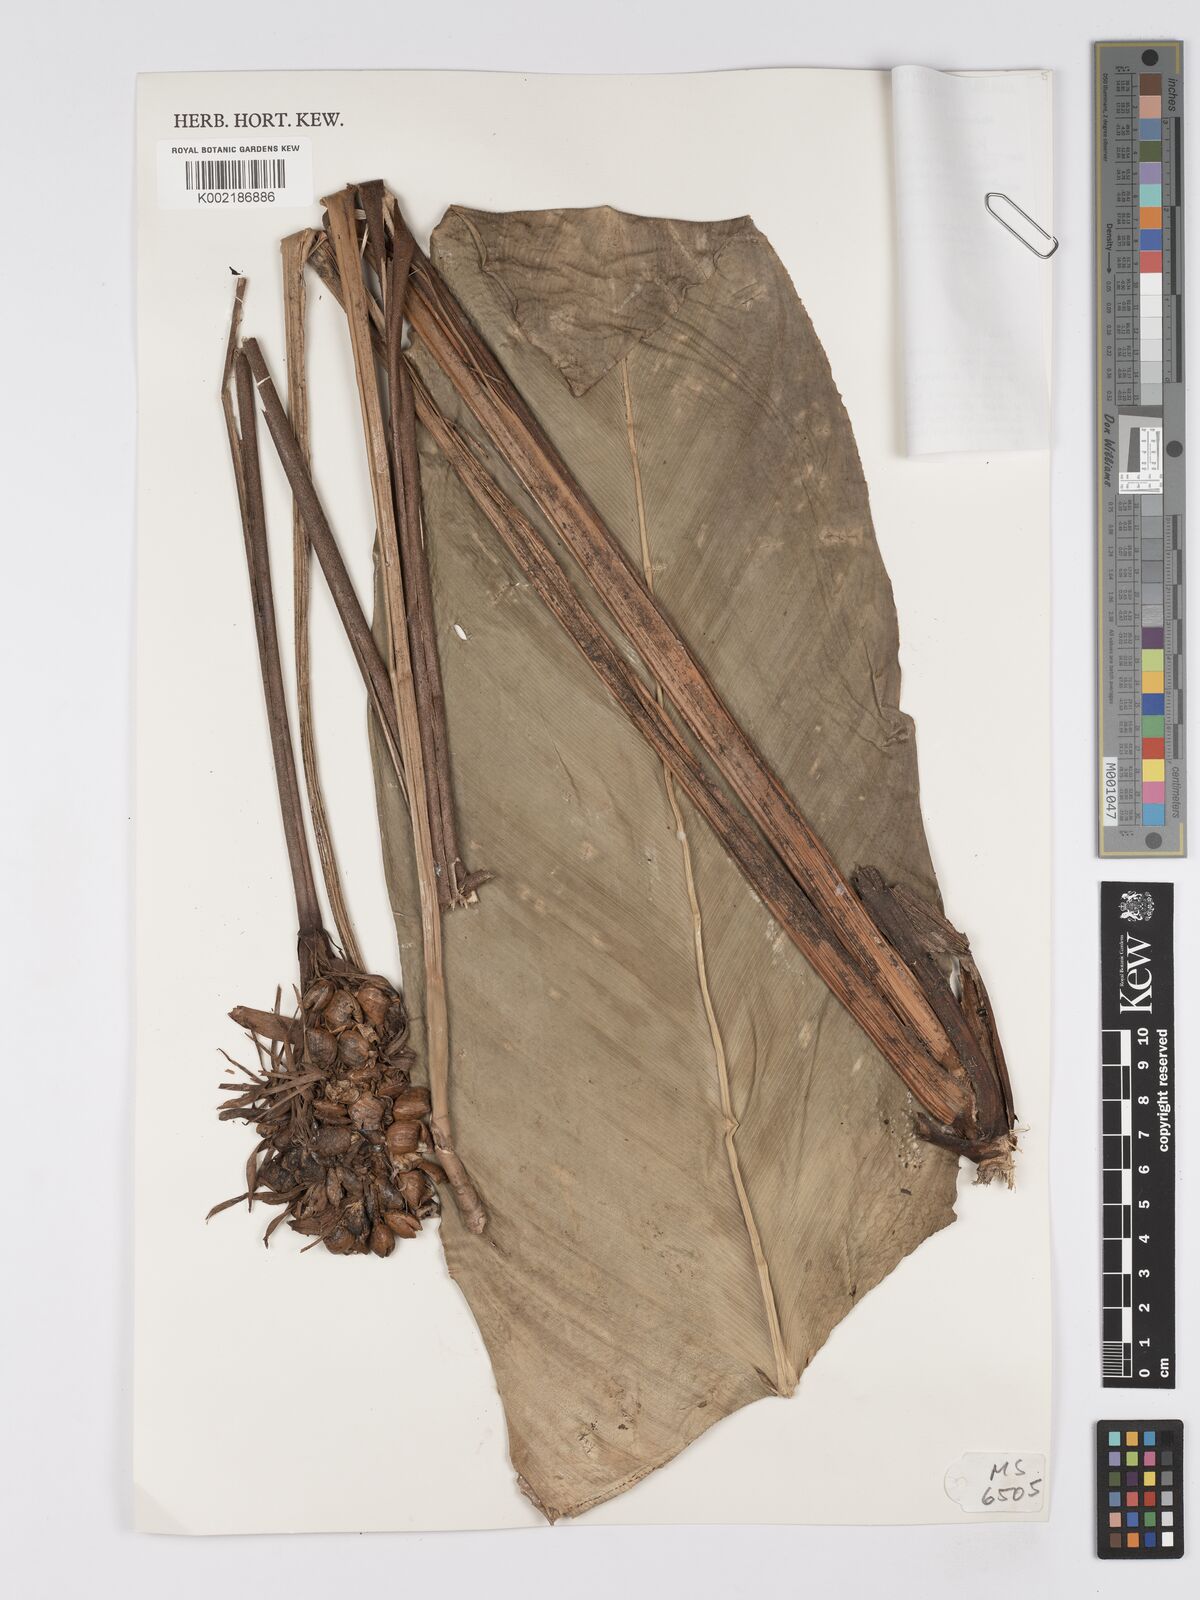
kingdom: Plantae
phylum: Tracheophyta
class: Liliopsida
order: Zingiberales
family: Marantaceae
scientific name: Marantaceae
